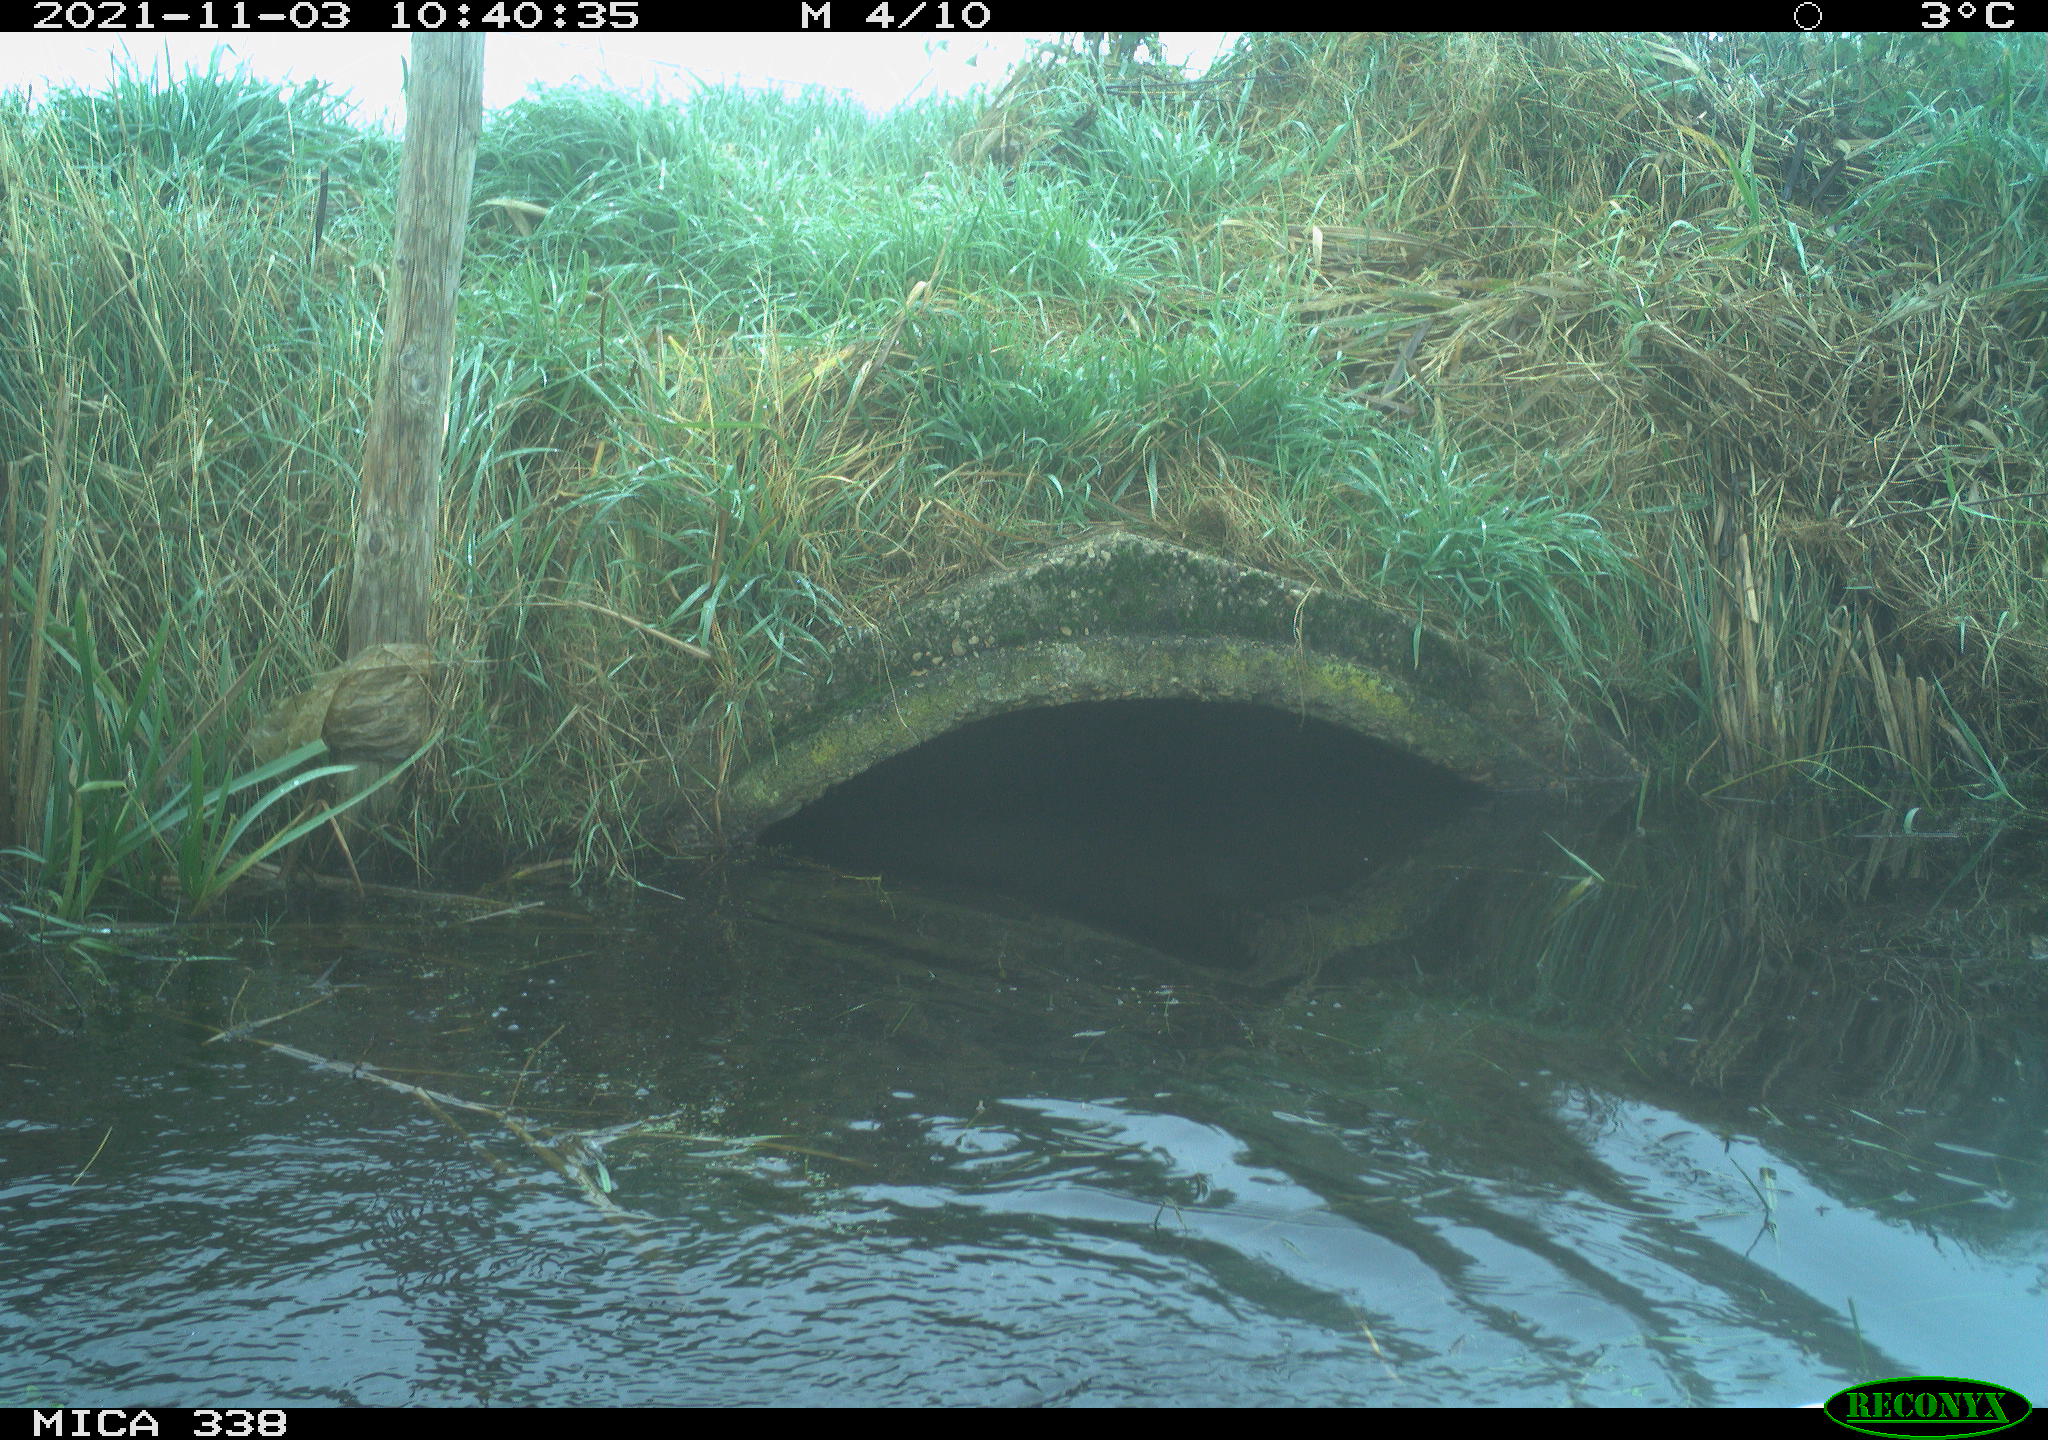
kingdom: Animalia
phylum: Chordata
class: Aves
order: Anseriformes
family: Anatidae
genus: Cygnus
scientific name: Cygnus olor
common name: Mute swan
